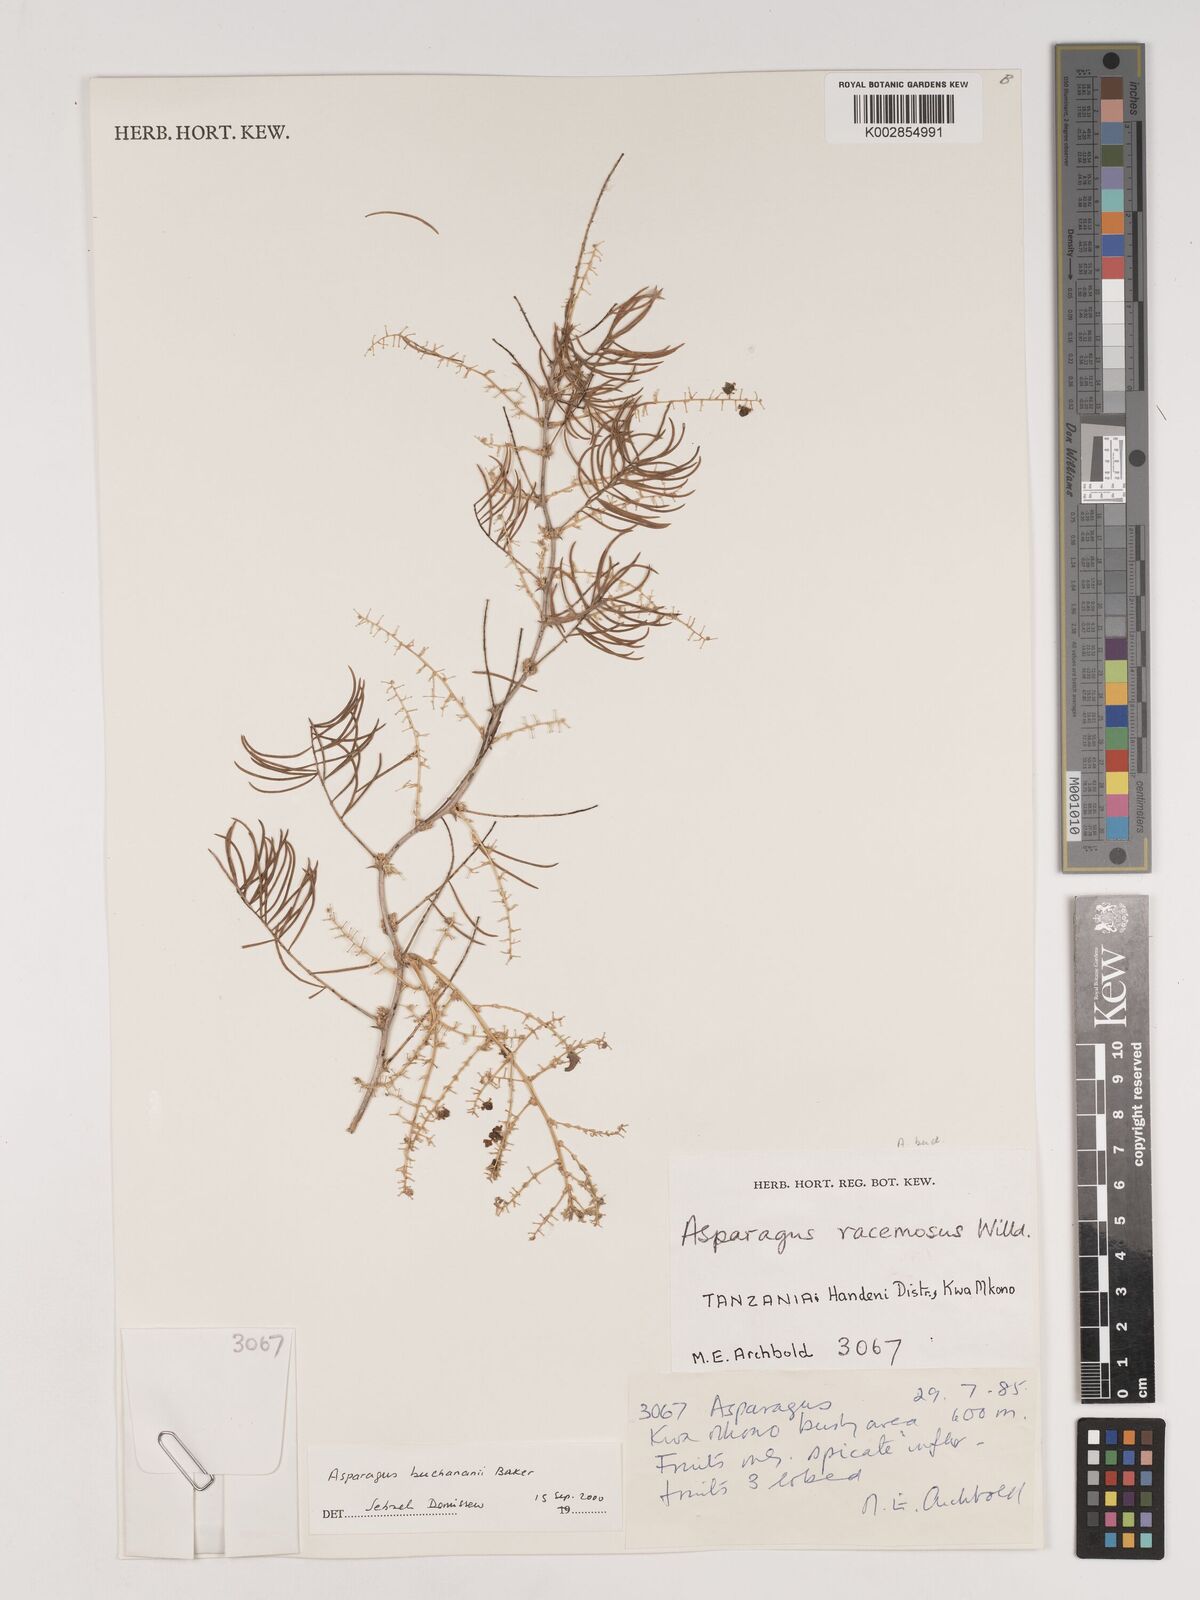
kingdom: Plantae
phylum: Tracheophyta
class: Liliopsida
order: Asparagales
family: Asparagaceae
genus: Asparagus
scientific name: Asparagus buchananii
